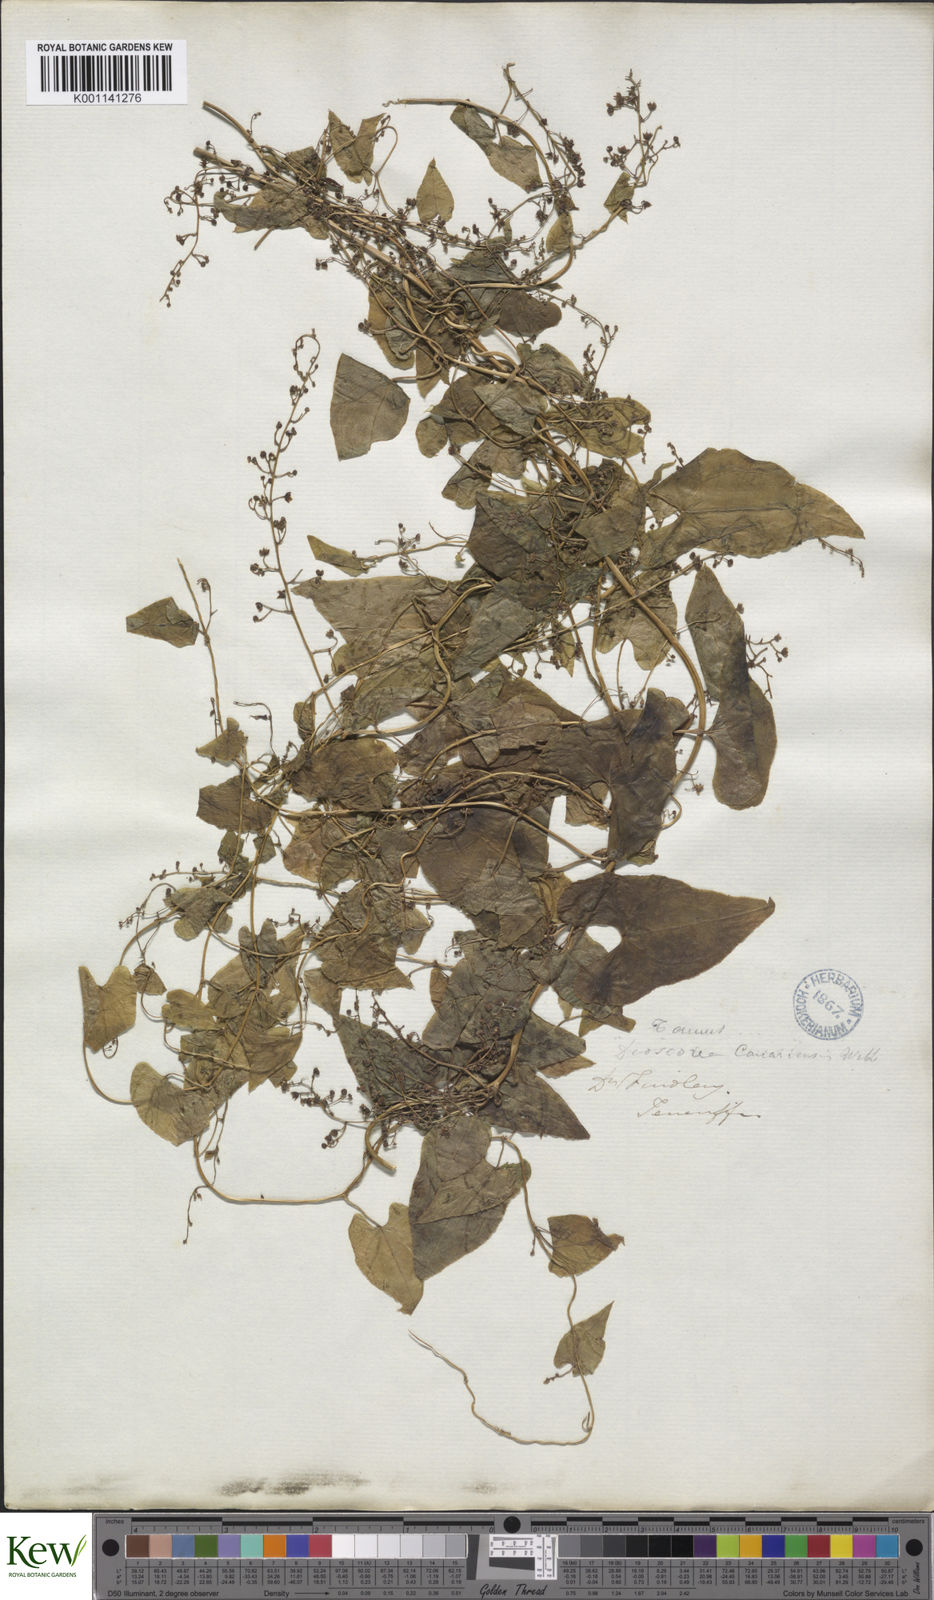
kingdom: Plantae
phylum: Tracheophyta
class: Liliopsida
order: Dioscoreales
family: Dioscoreaceae
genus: Dioscorea
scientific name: Dioscorea
